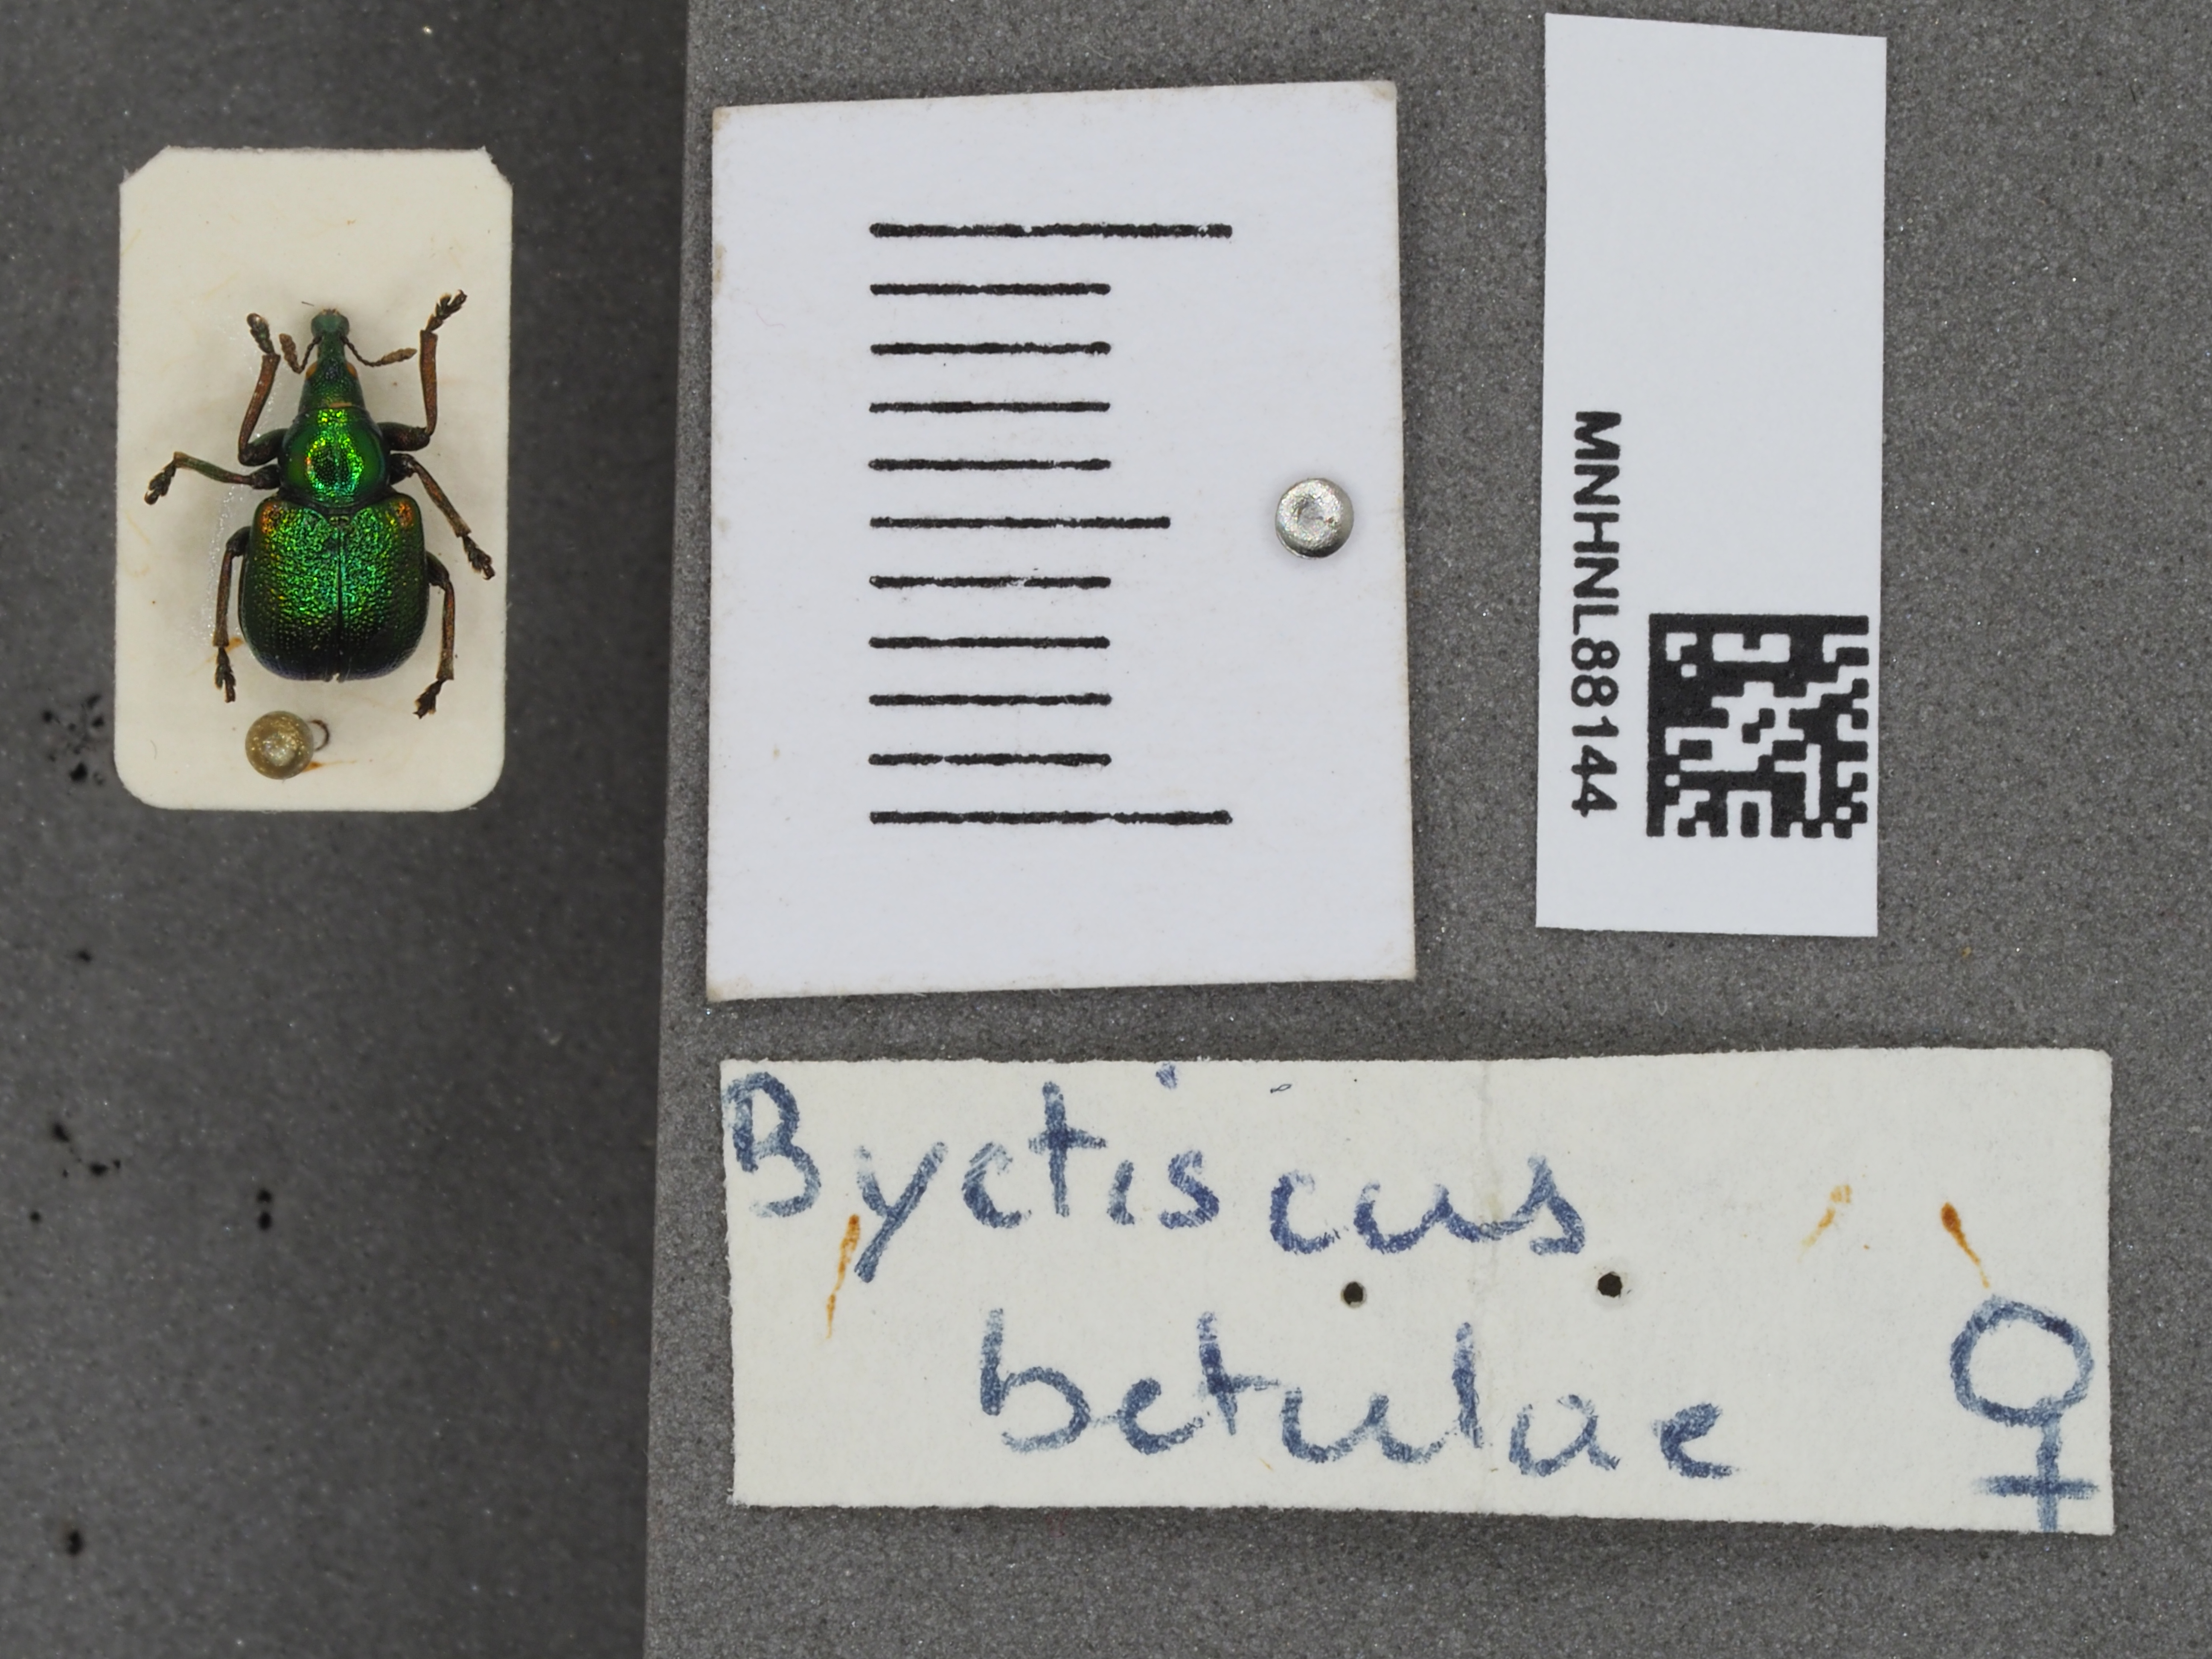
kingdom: Animalia
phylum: Arthropoda
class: Insecta
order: Coleoptera
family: Attelabidae
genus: Byctiscus
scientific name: Byctiscus betulae
